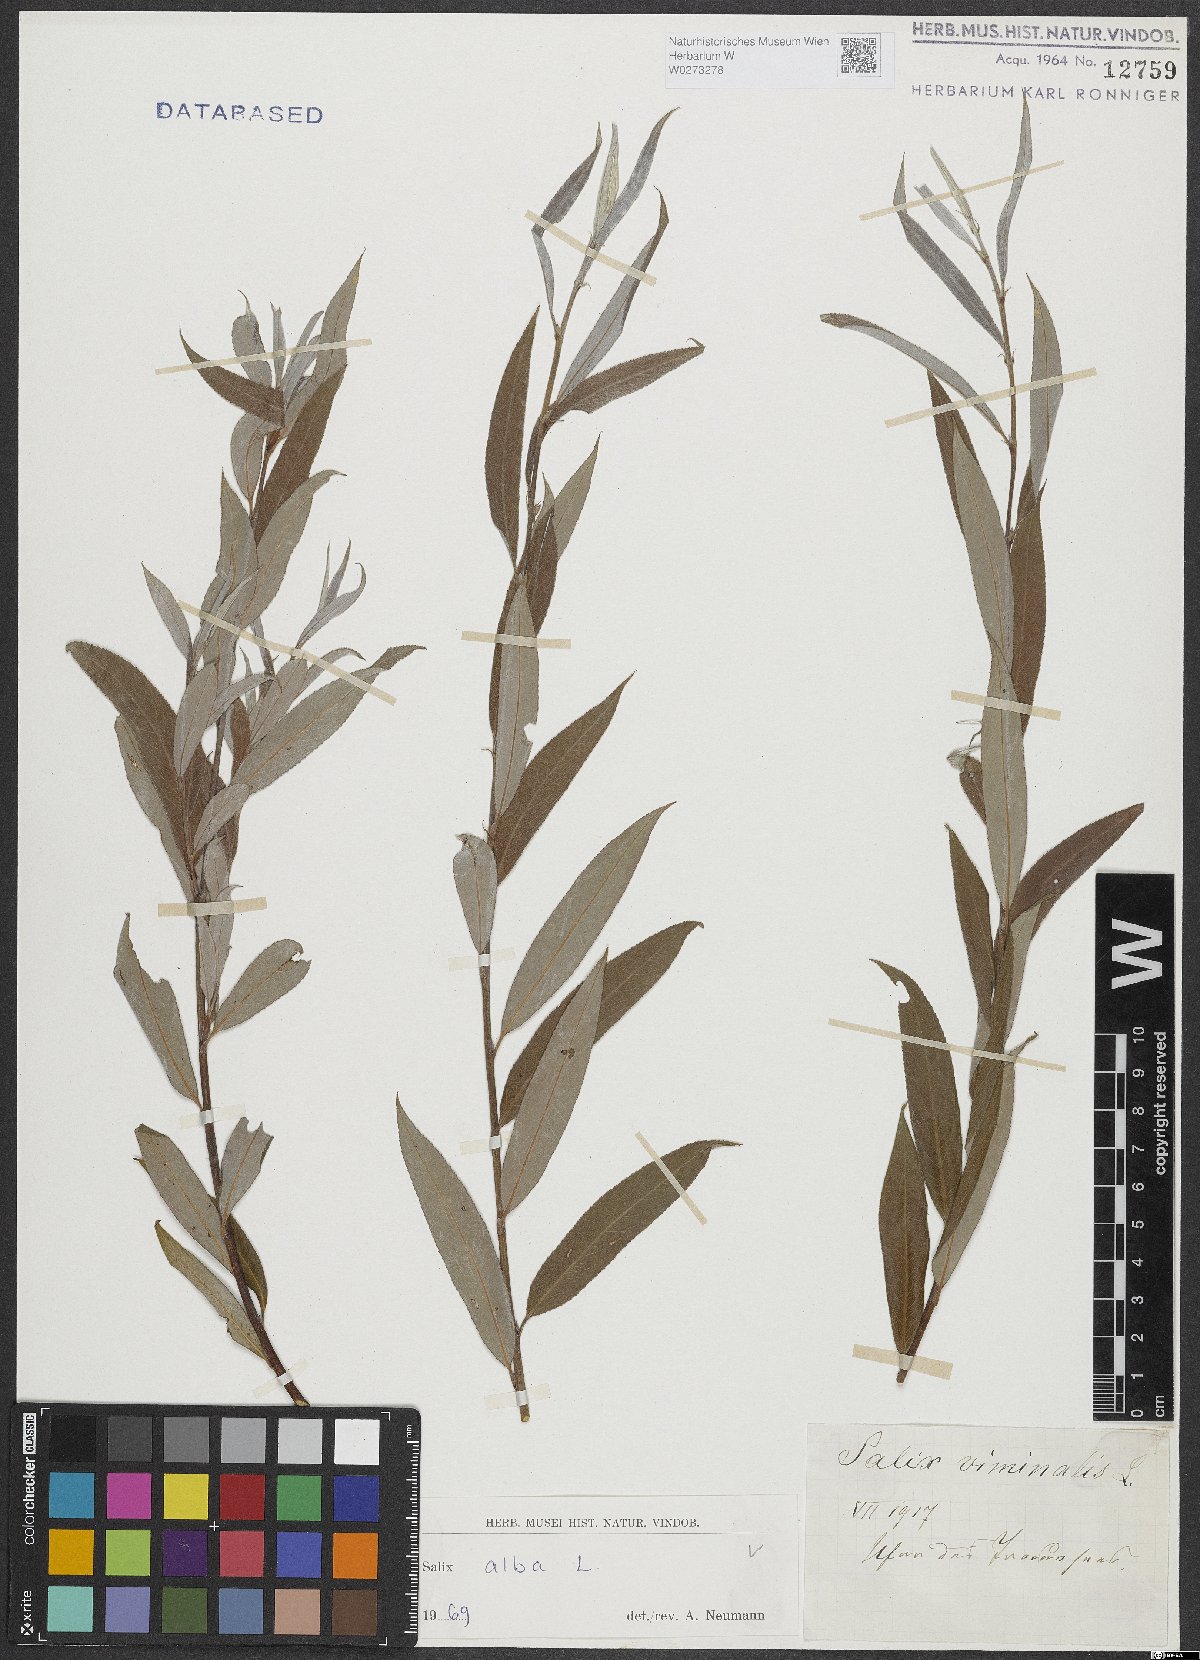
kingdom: Plantae
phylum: Tracheophyta
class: Magnoliopsida
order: Malpighiales
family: Salicaceae
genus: Salix
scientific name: Salix alba
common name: White willow
